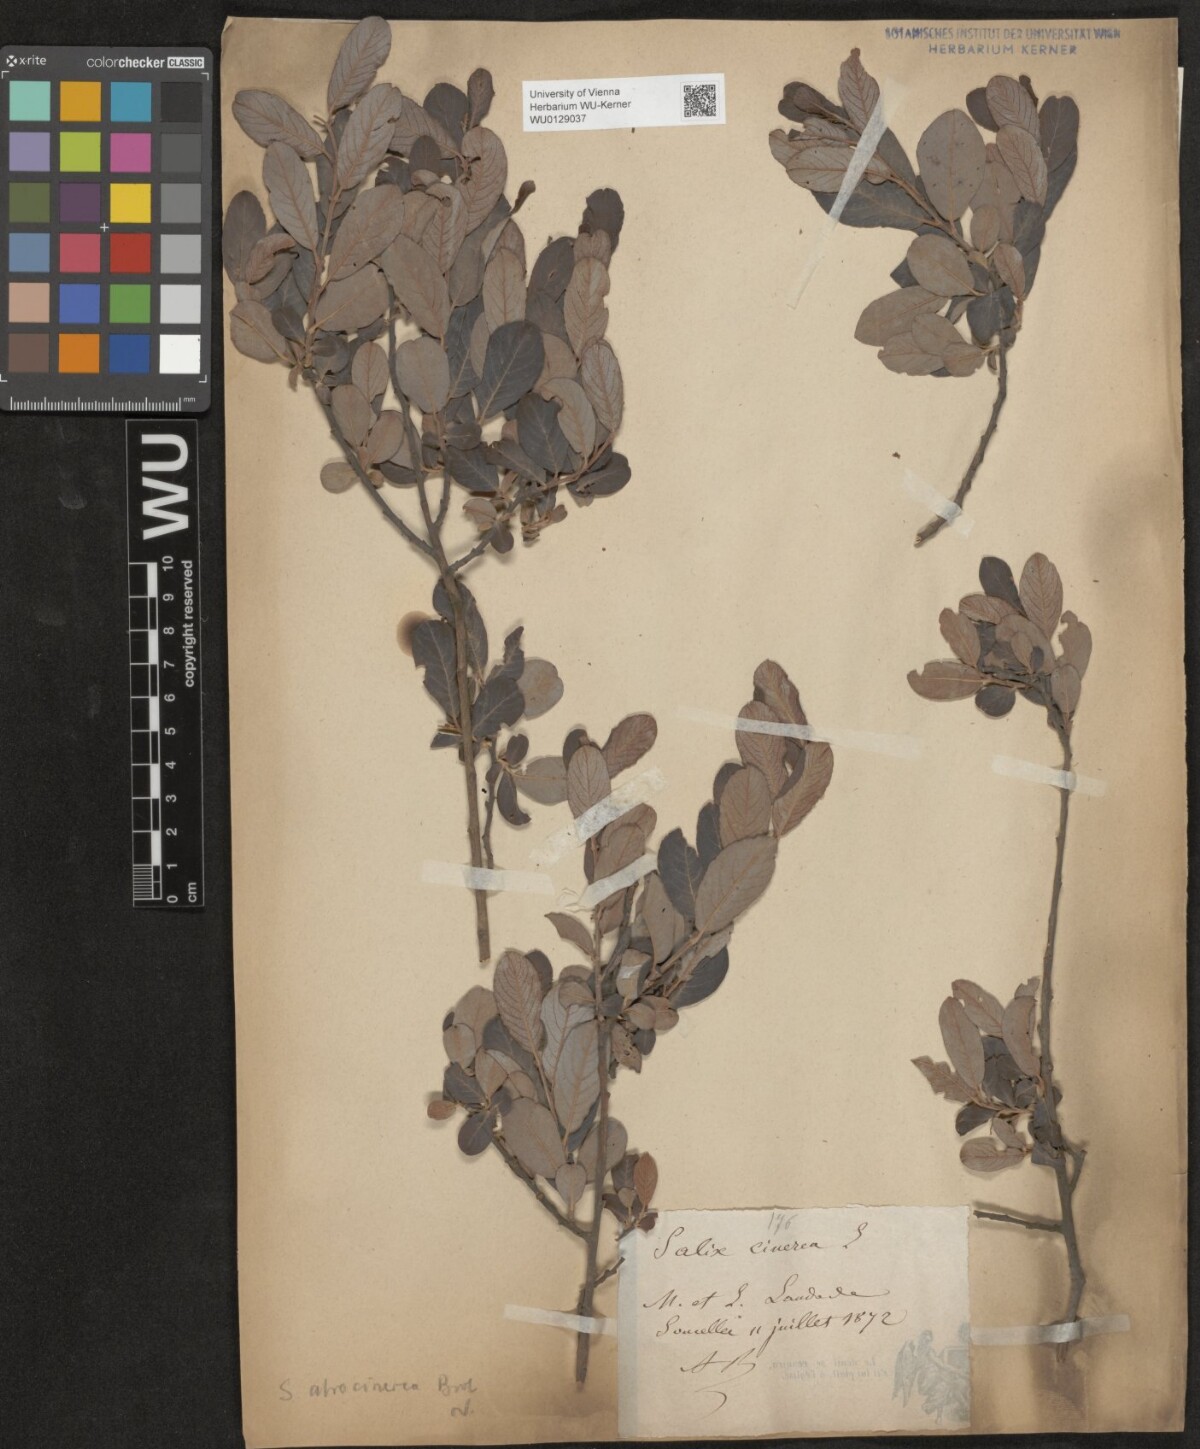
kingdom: Plantae
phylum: Tracheophyta
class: Magnoliopsida
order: Malpighiales
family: Salicaceae
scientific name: Salicaceae
